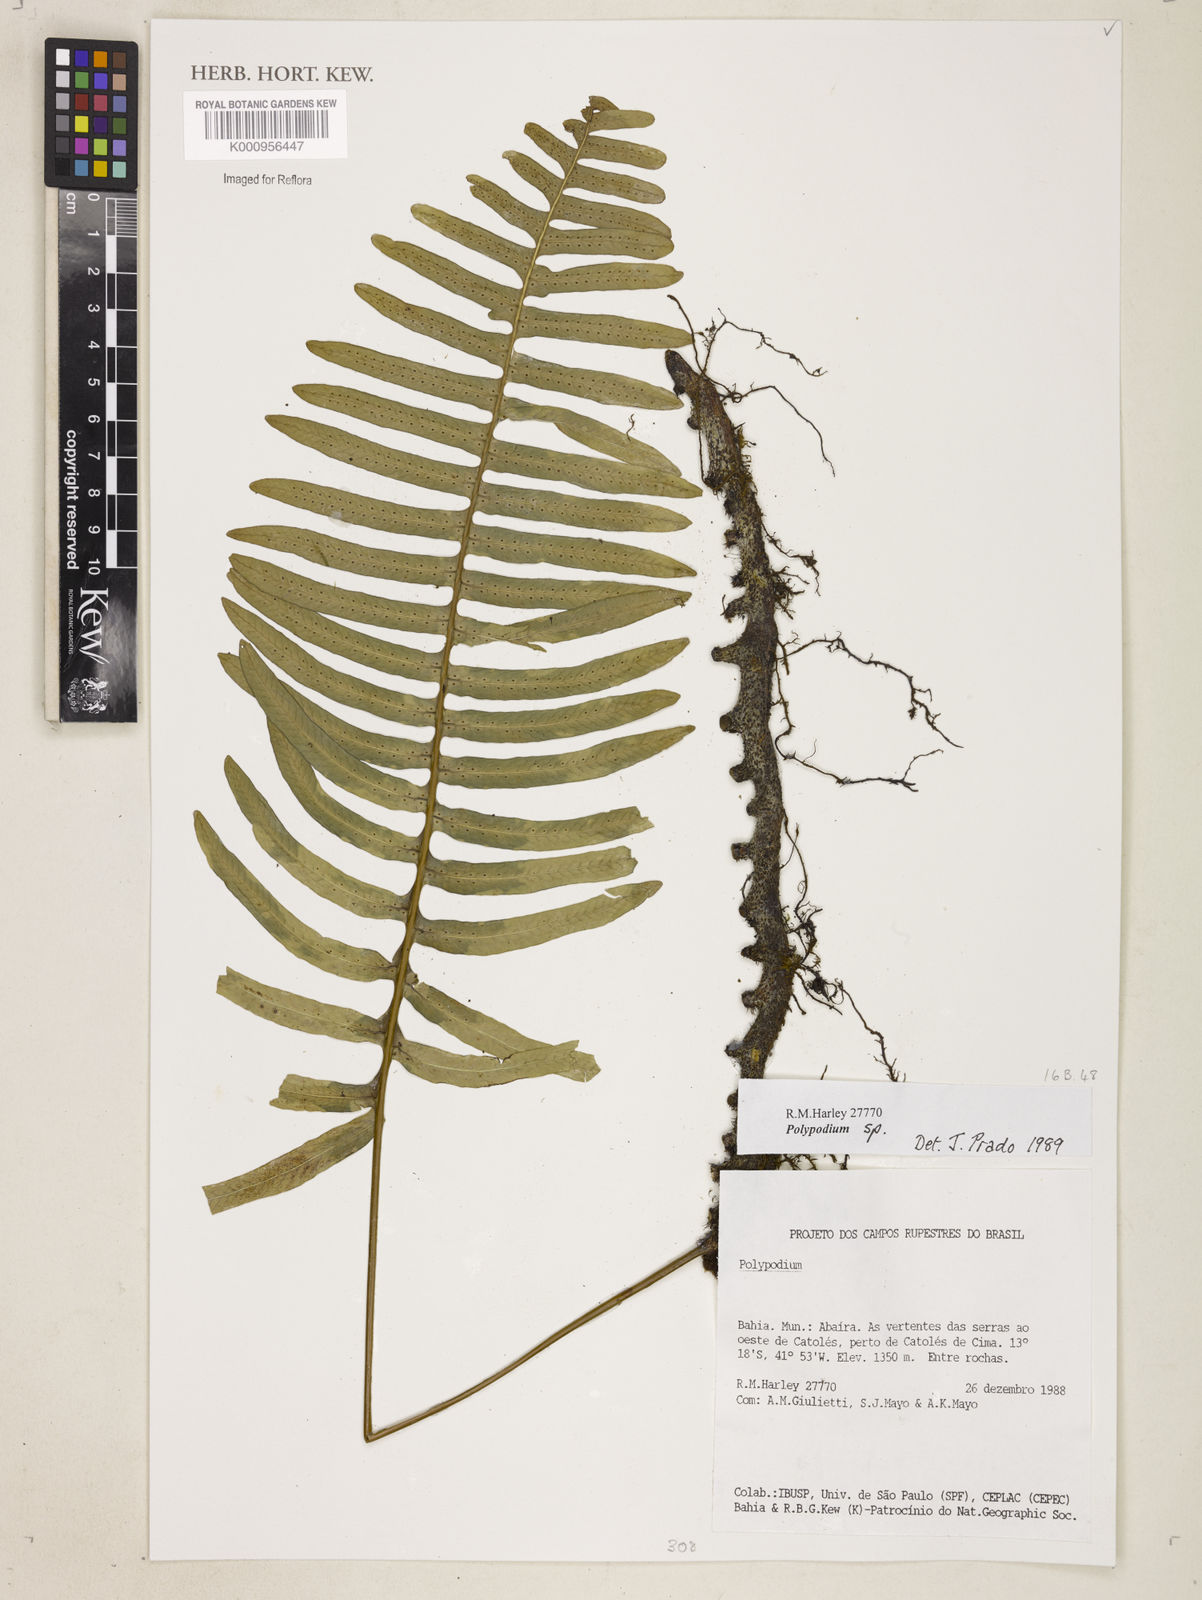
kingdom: Plantae
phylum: Tracheophyta
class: Polypodiopsida
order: Polypodiales
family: Polypodiaceae
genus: Polypodium
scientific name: Polypodium
